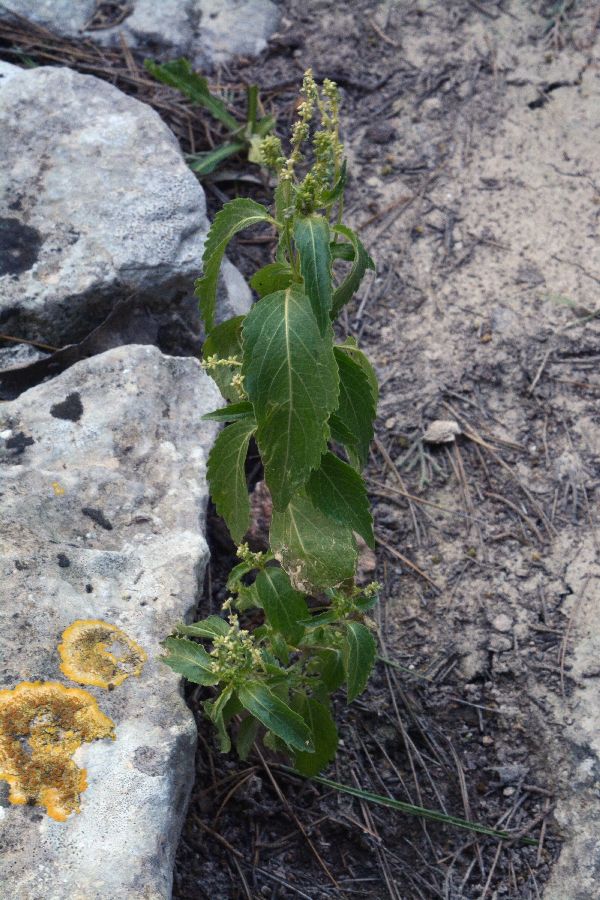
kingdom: Plantae
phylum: Tracheophyta
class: Magnoliopsida
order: Rosales
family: Urticaceae
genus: Parietaria
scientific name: Parietaria judaica
